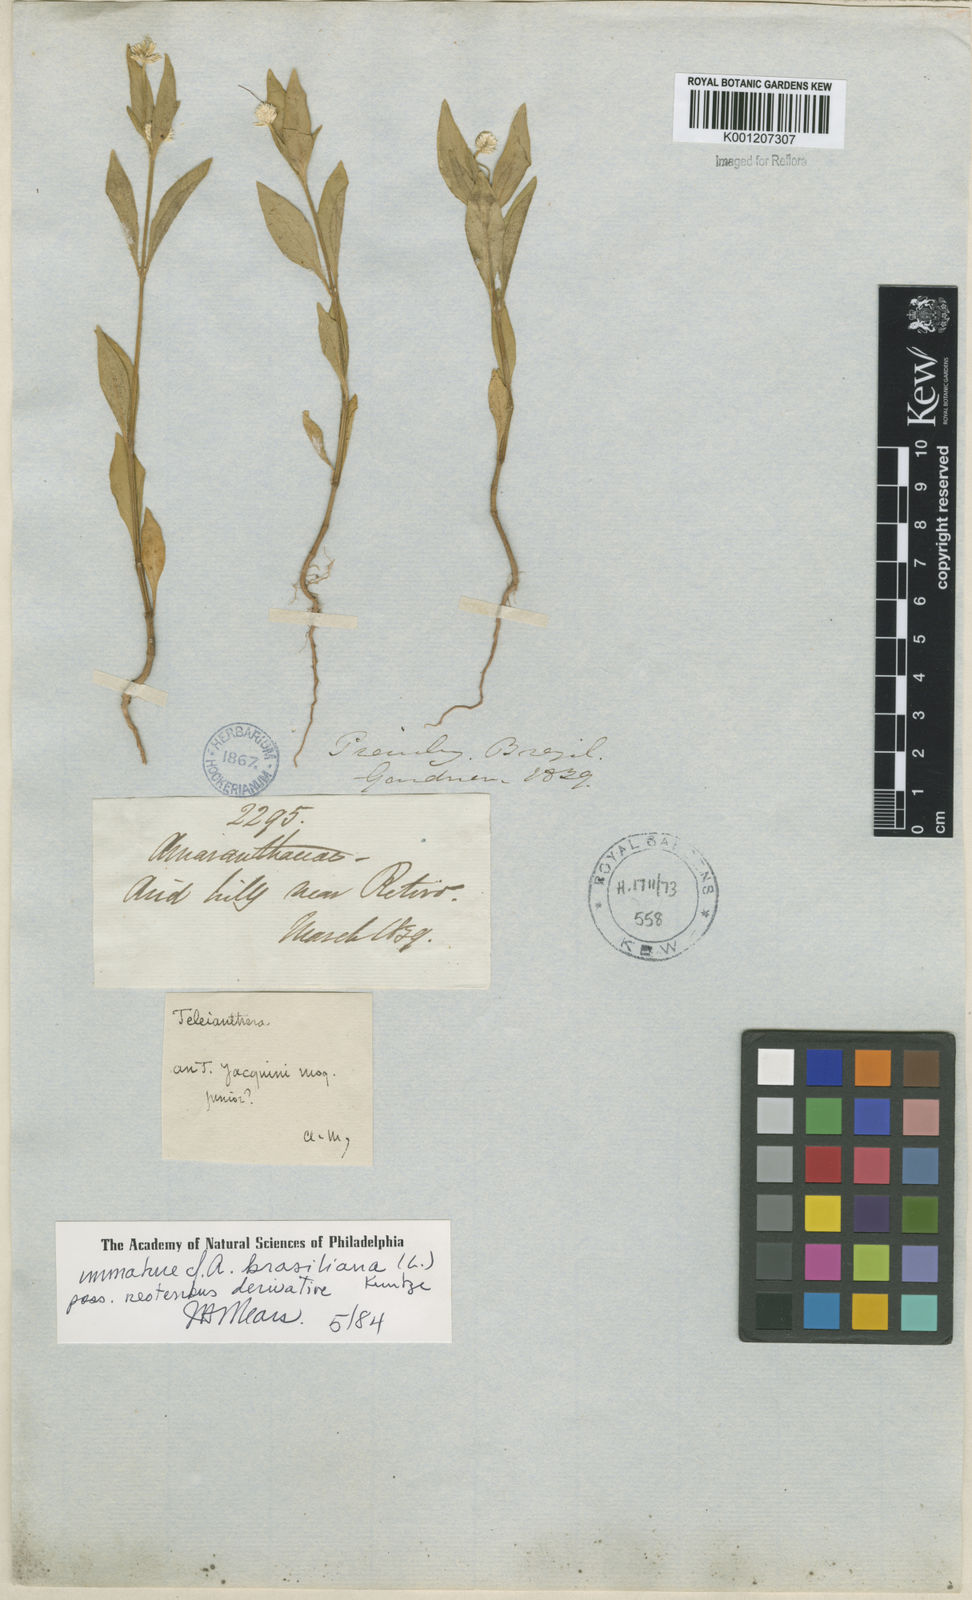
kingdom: Plantae
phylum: Tracheophyta
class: Magnoliopsida
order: Caryophyllales
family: Amaranthaceae
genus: Alternanthera
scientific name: Alternanthera brasiliana
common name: Brazilian joyweed
